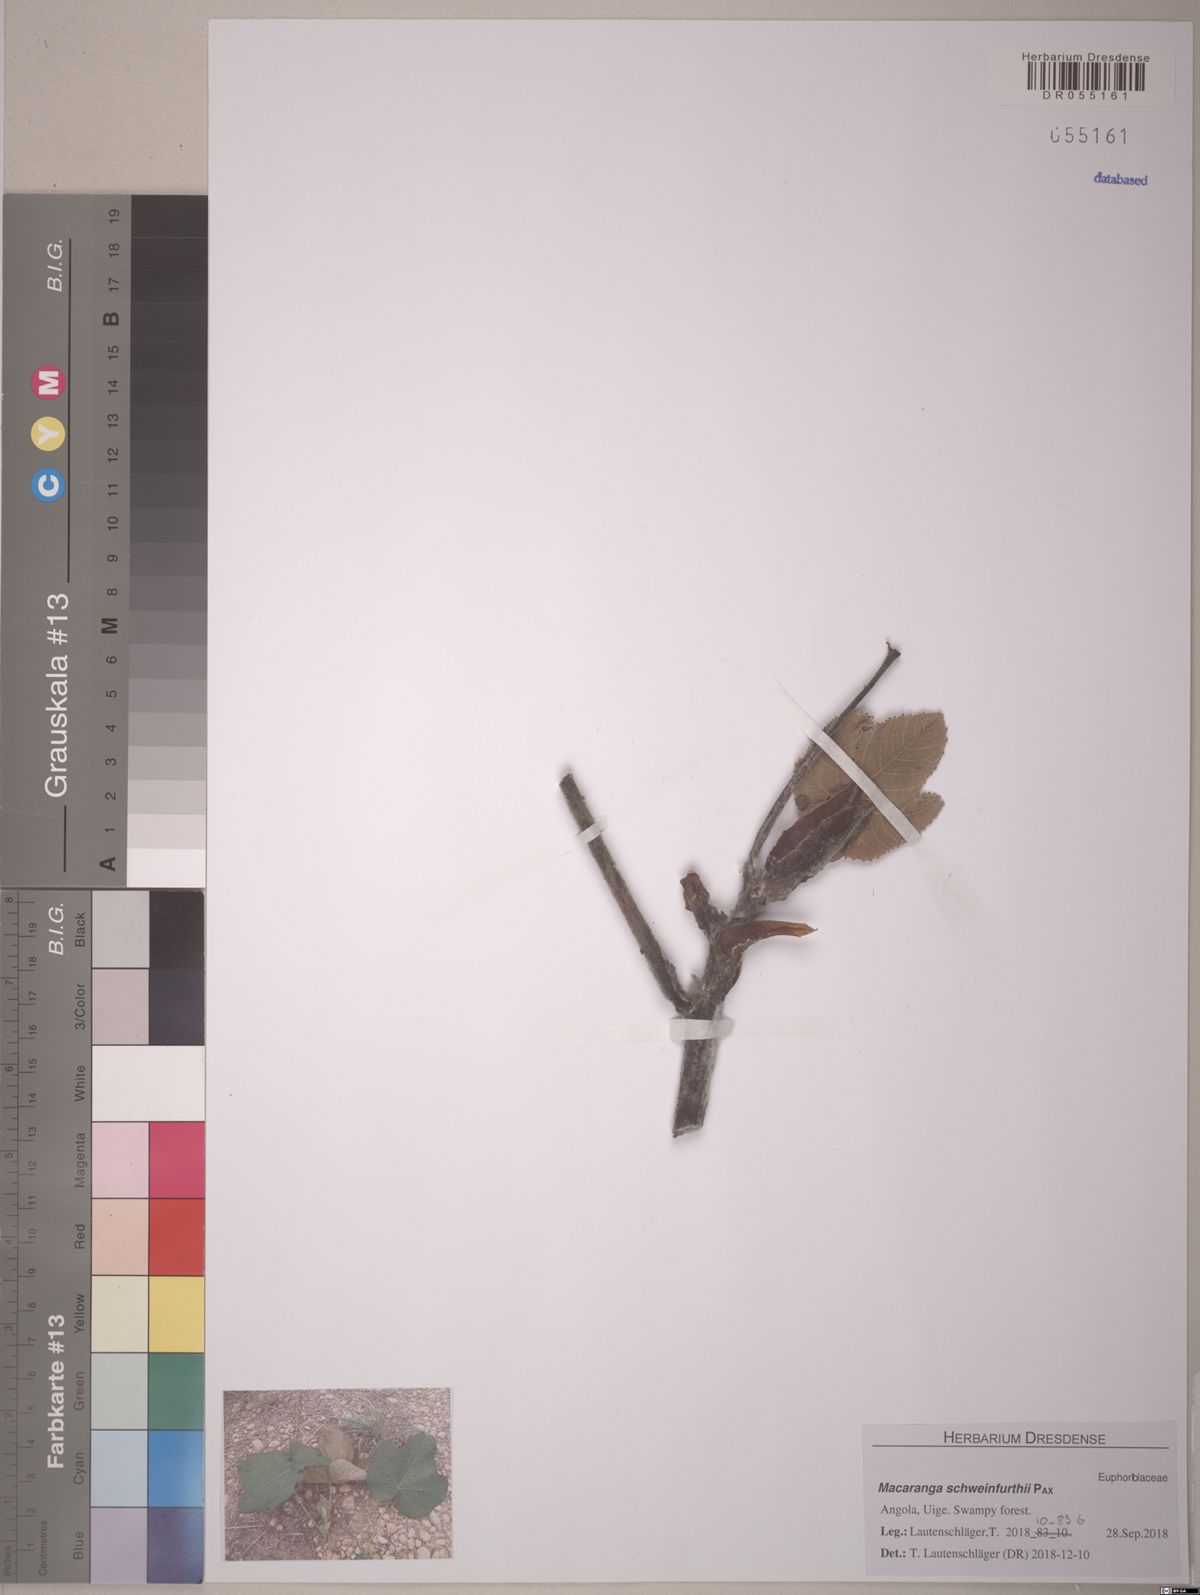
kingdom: Plantae
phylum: Tracheophyta
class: Magnoliopsida
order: Malpighiales
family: Euphorbiaceae
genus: Macaranga
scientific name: Macaranga schweinfurthii
